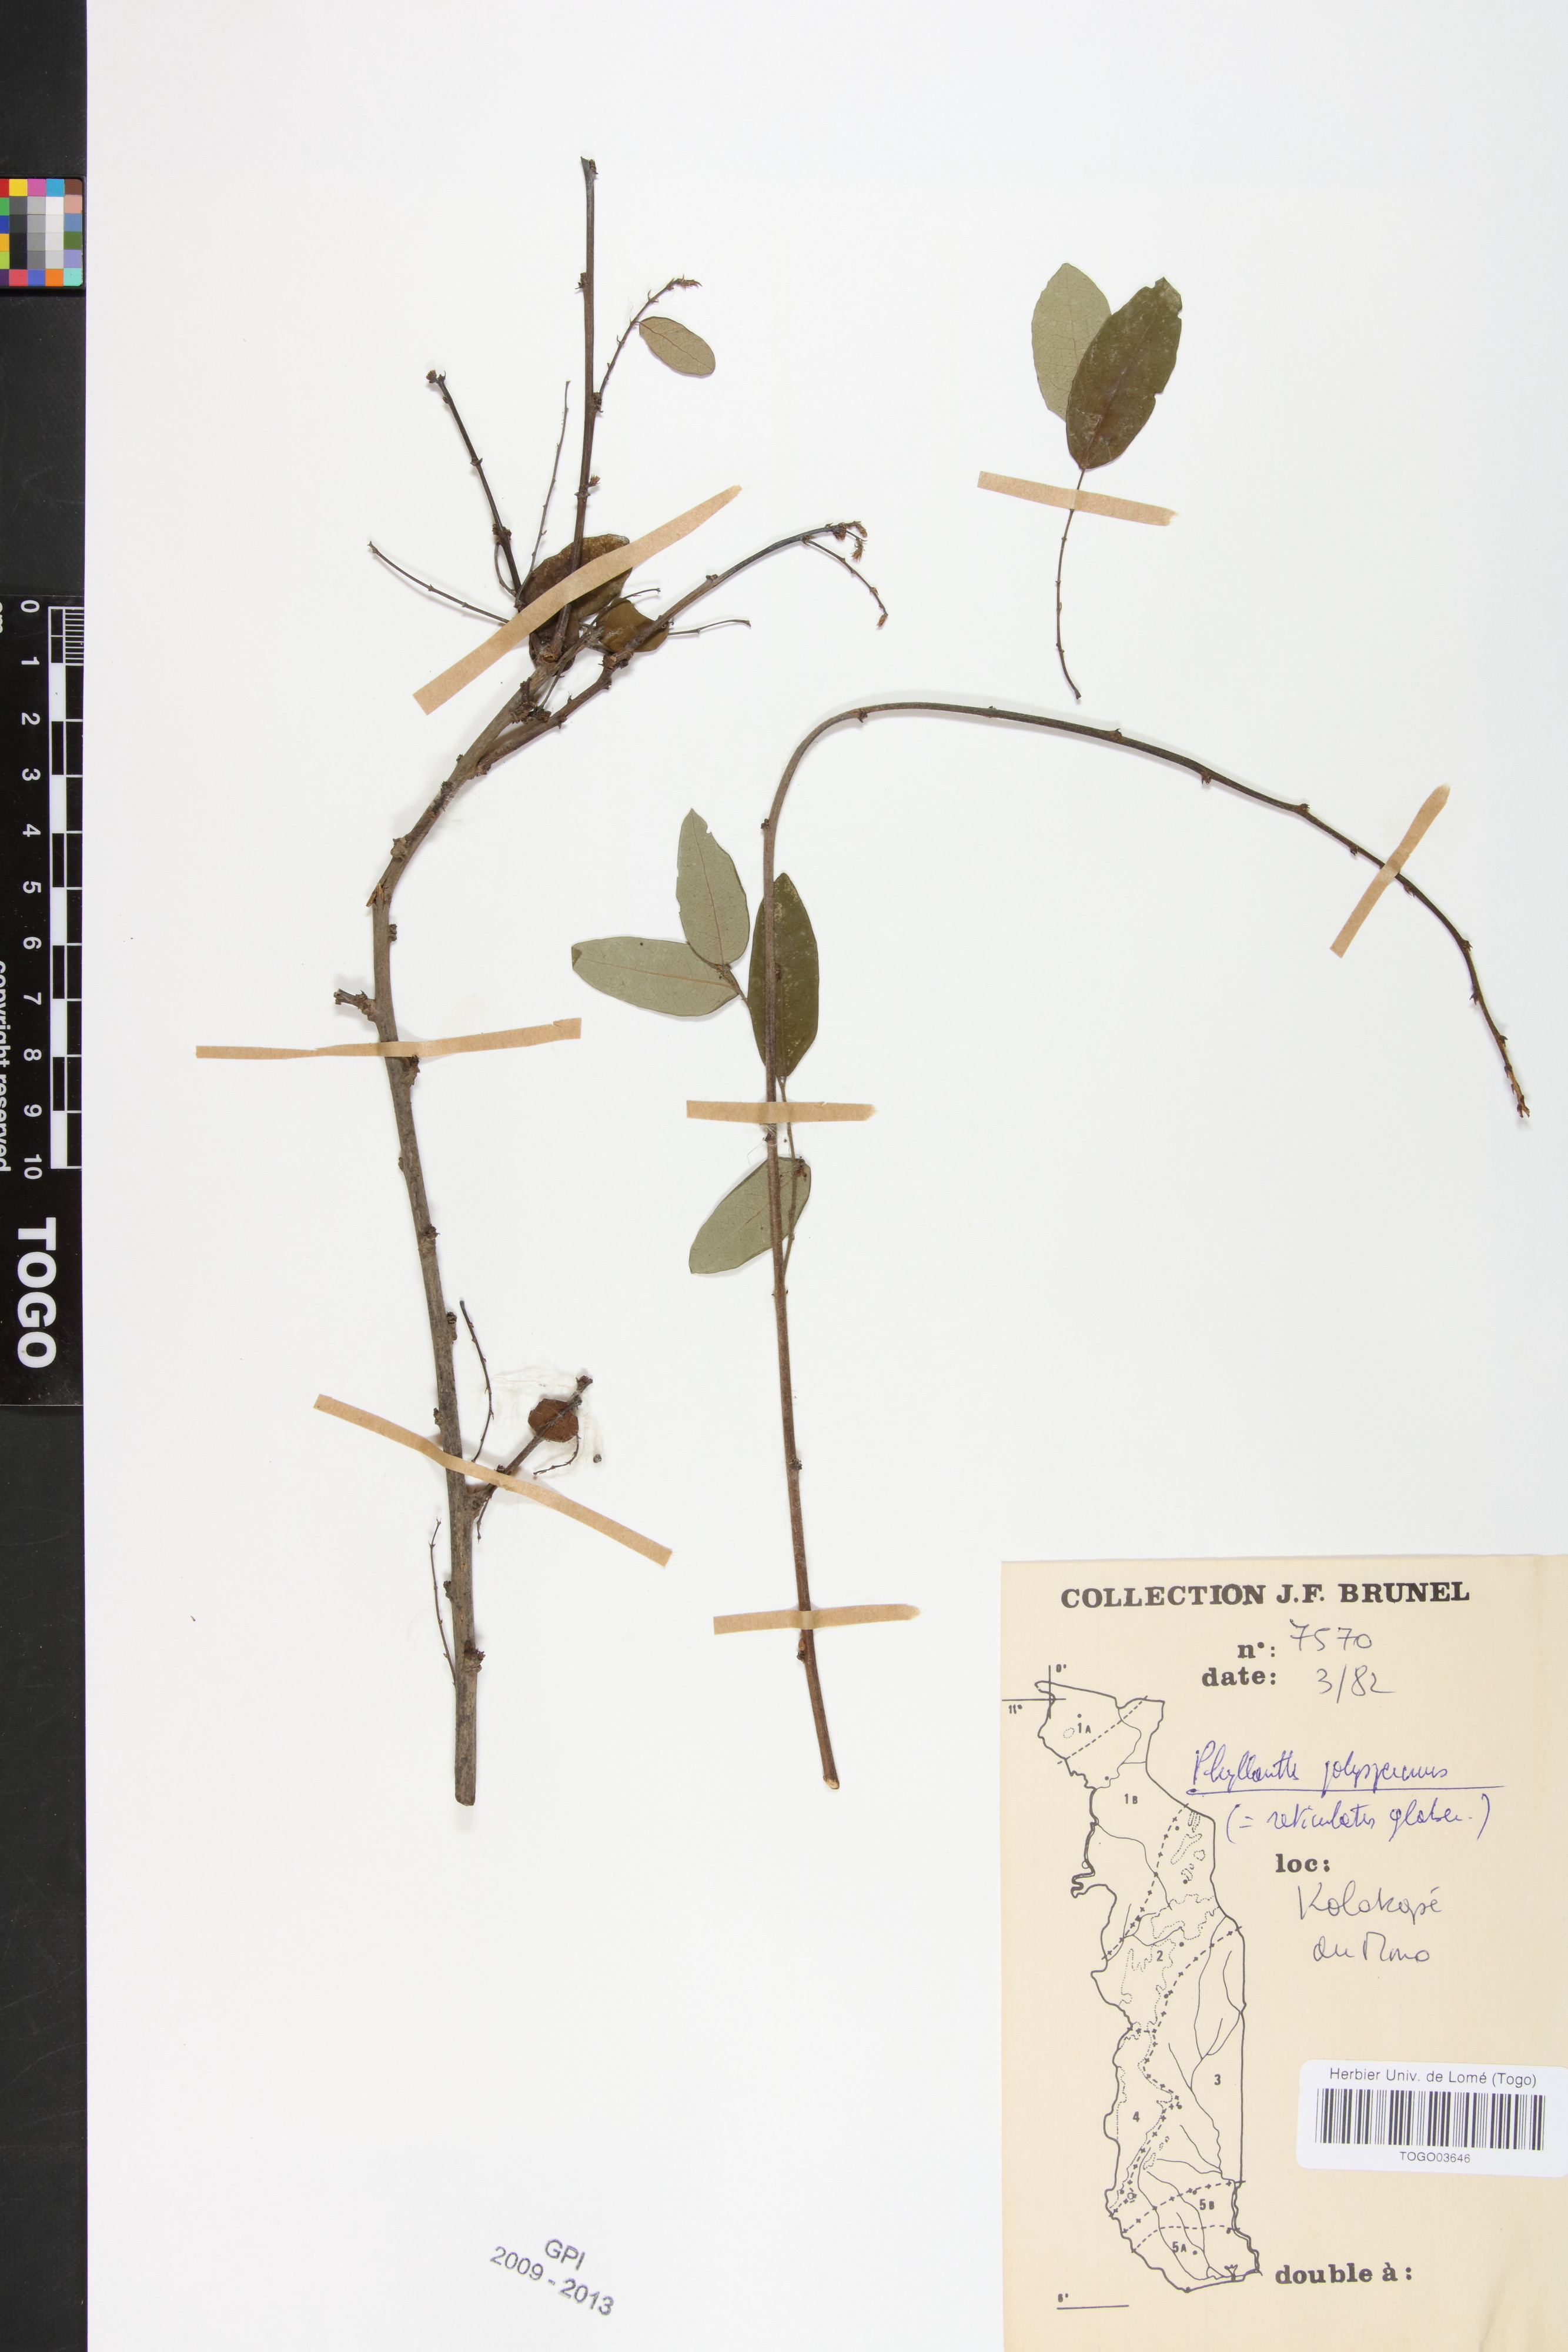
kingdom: Plantae
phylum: Tracheophyta
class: Magnoliopsida
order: Malpighiales
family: Phyllanthaceae
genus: Phyllanthus
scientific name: Phyllanthus polyspermus
